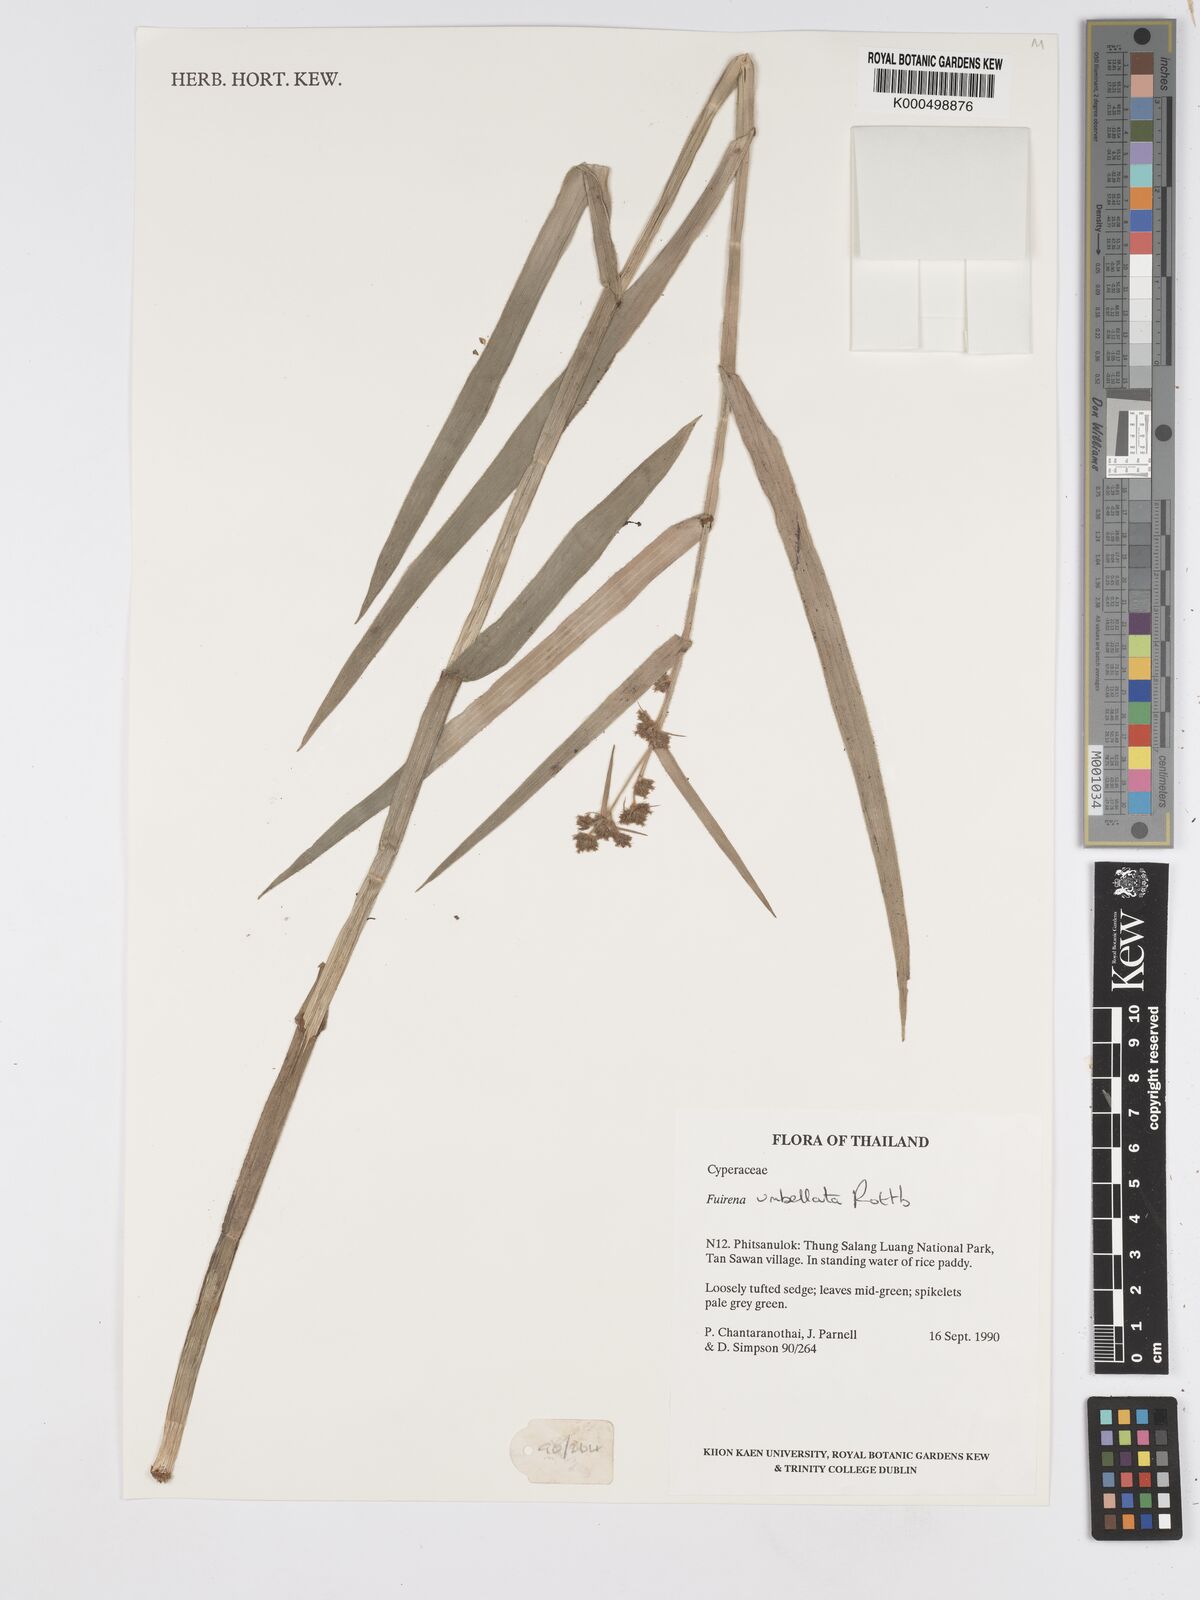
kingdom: Plantae
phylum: Tracheophyta
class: Liliopsida
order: Poales
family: Cyperaceae
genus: Fuirena
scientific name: Fuirena umbellata
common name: Yefen
